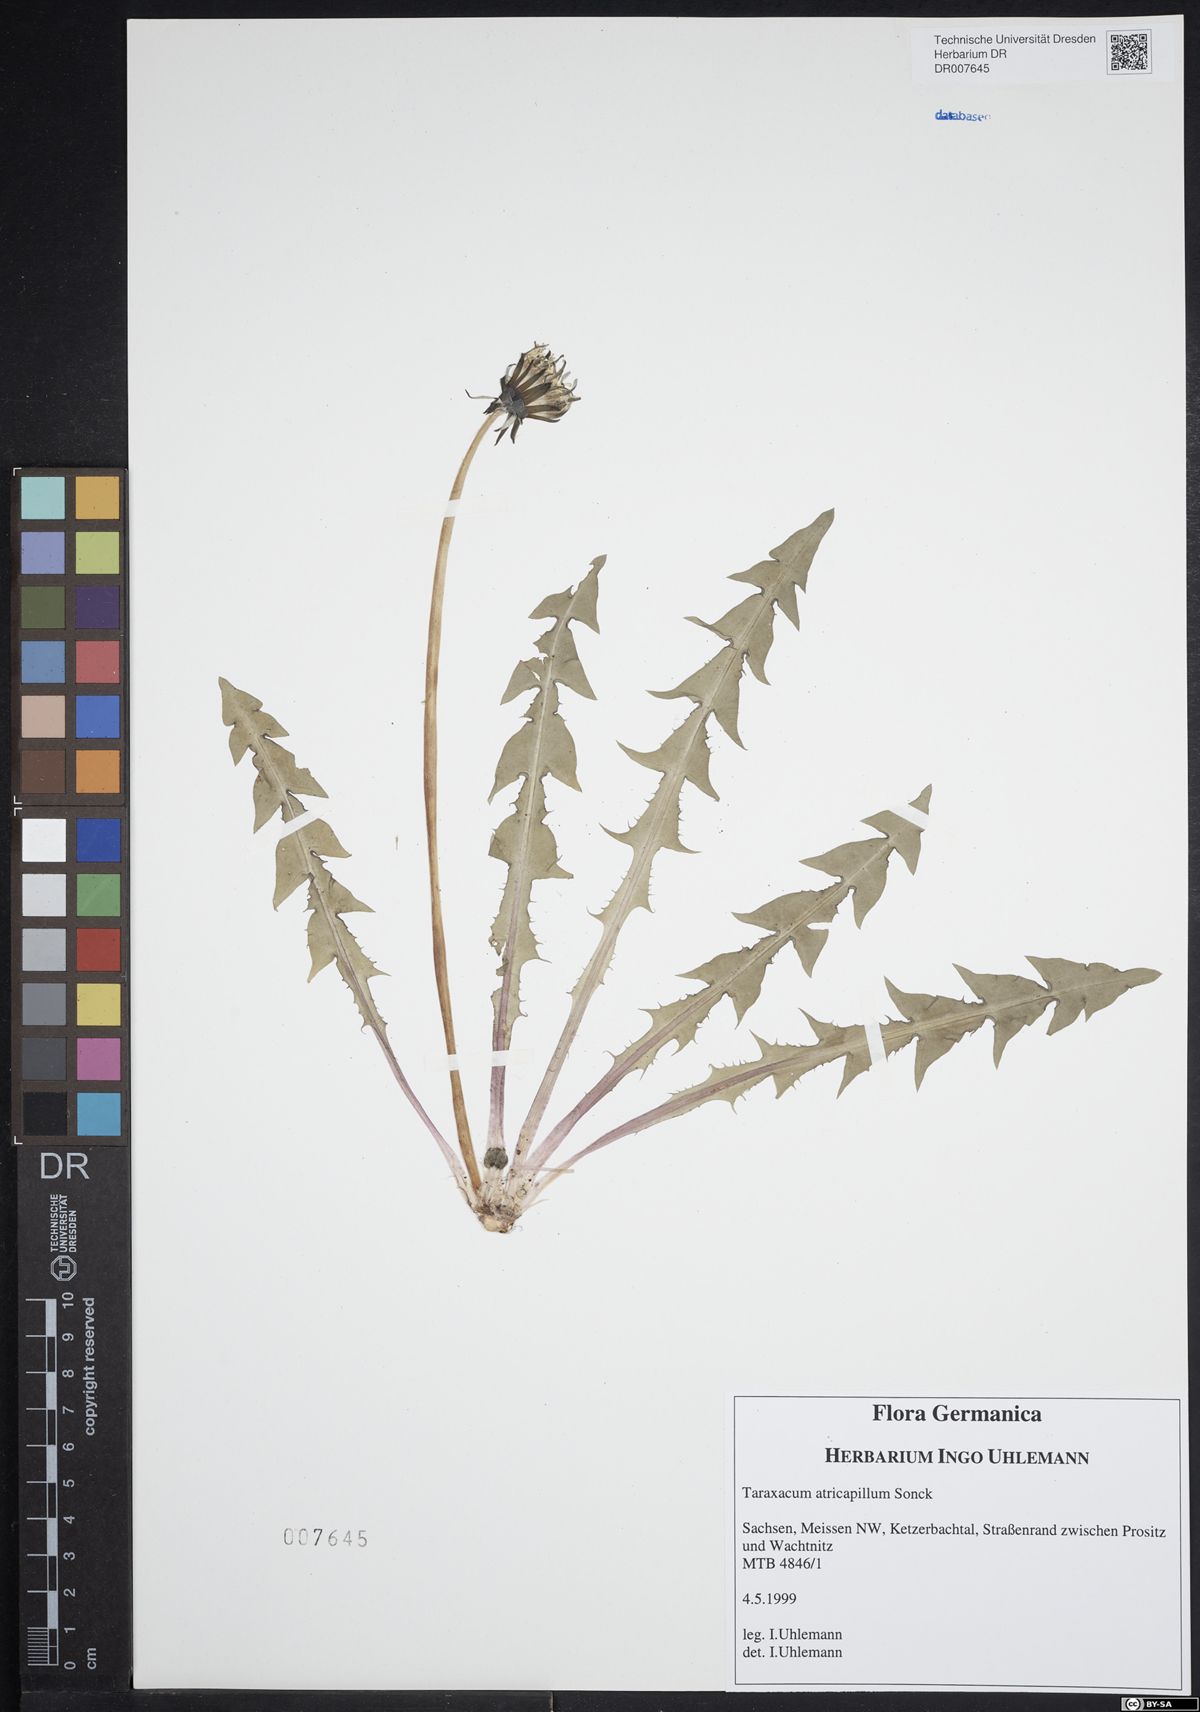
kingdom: Plantae
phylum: Tracheophyta
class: Magnoliopsida
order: Asterales
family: Asteraceae
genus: Taraxacum
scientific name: Taraxacum atricapillum
